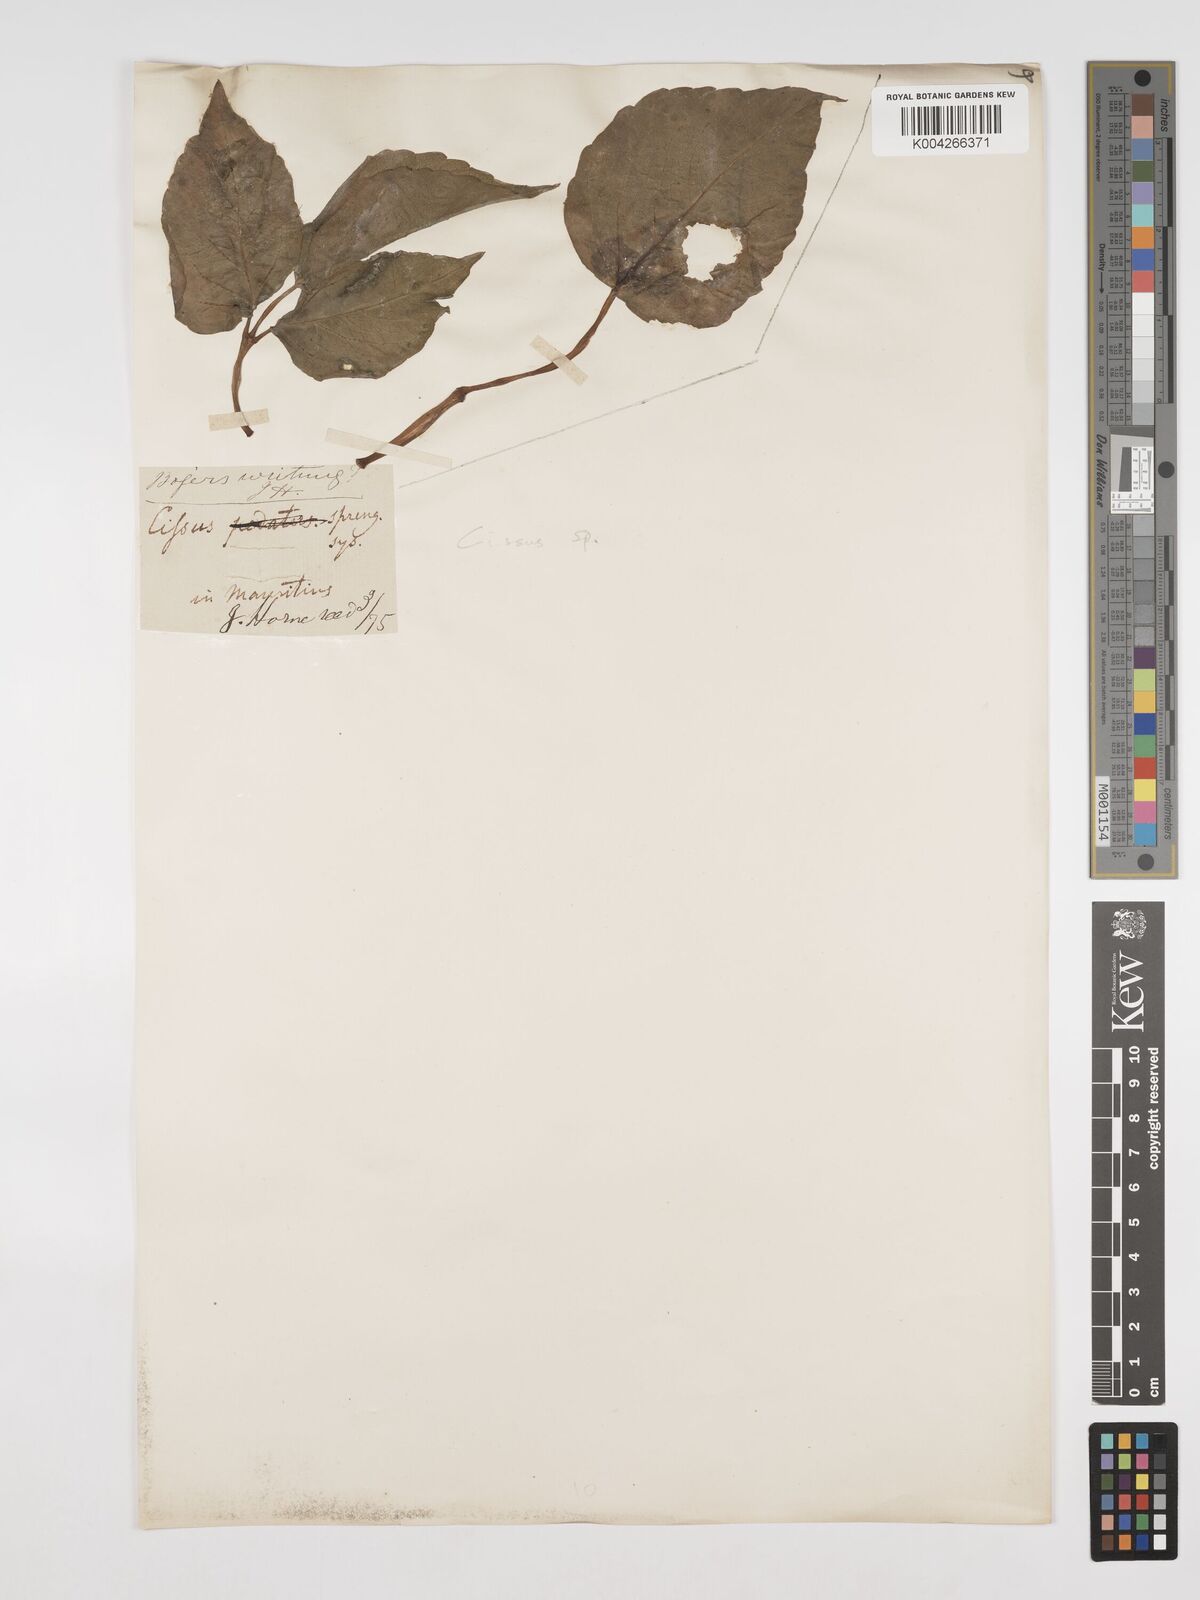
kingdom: Plantae
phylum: Tracheophyta
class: Magnoliopsida
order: Vitales
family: Vitaceae
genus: Cissus
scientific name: Cissus
